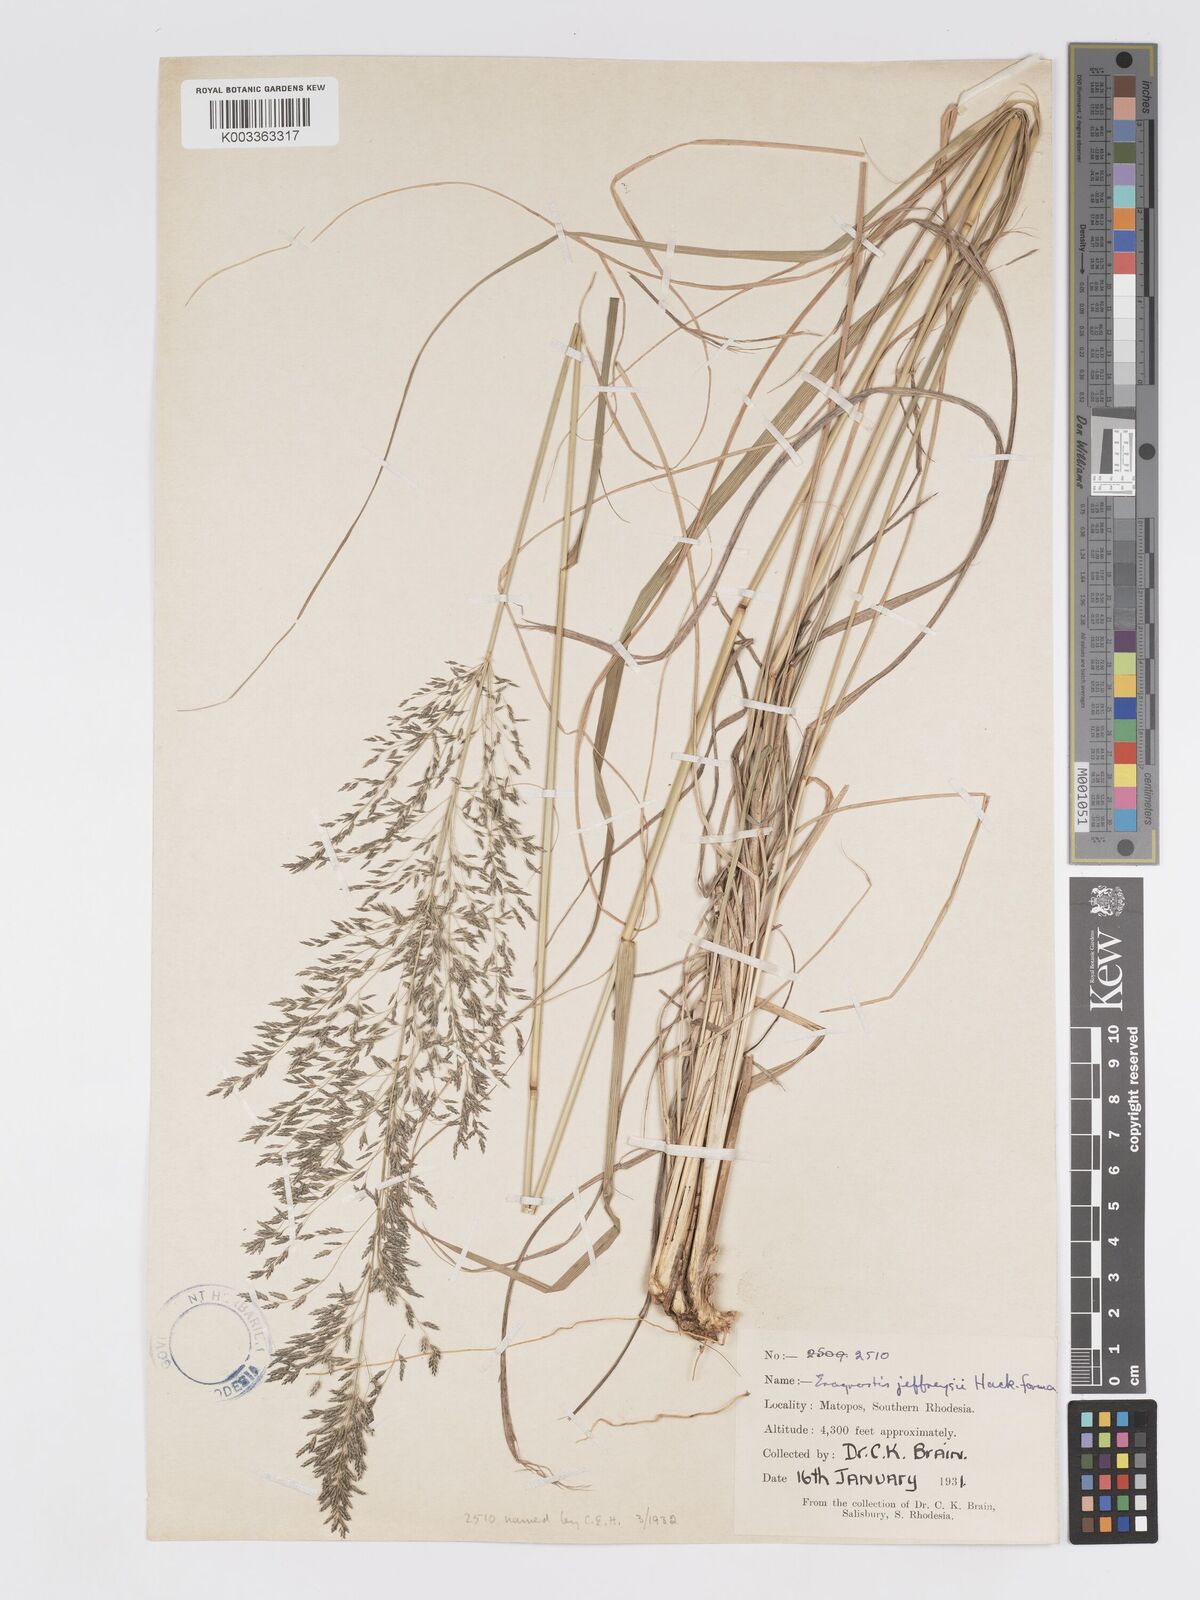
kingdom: Plantae
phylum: Tracheophyta
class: Liliopsida
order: Poales
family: Poaceae
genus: Eragrostis
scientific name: Eragrostis curvula
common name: African love-grass
